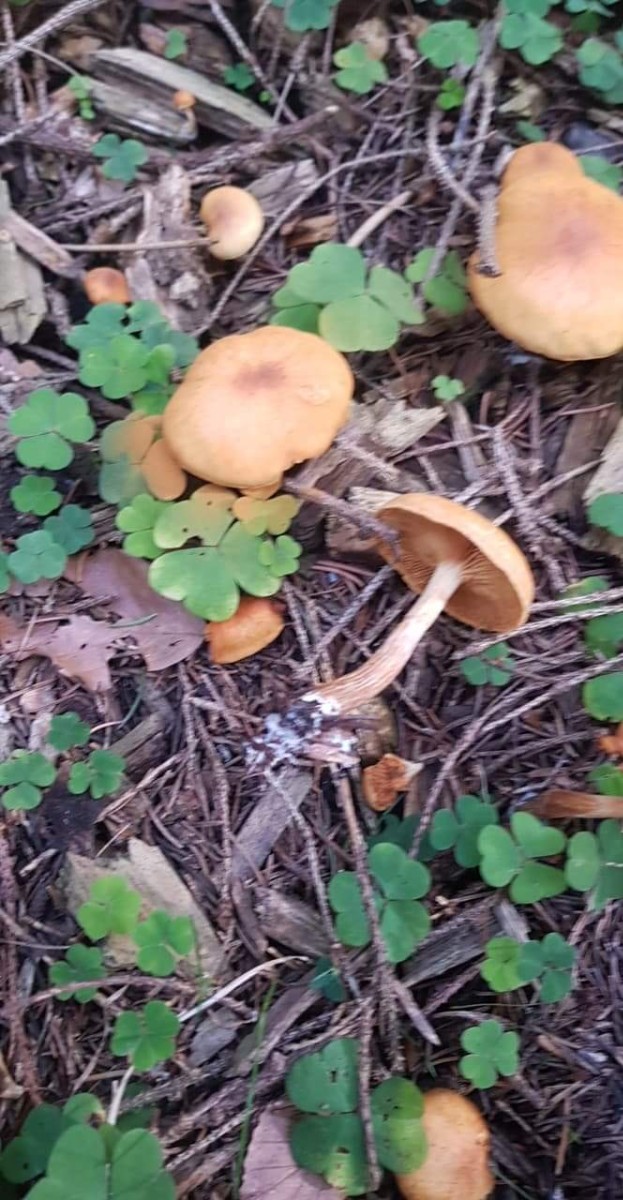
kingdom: Fungi
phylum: Basidiomycota
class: Agaricomycetes
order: Agaricales
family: Hymenogastraceae
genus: Gymnopilus
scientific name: Gymnopilus penetrans
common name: plettet flammehat
